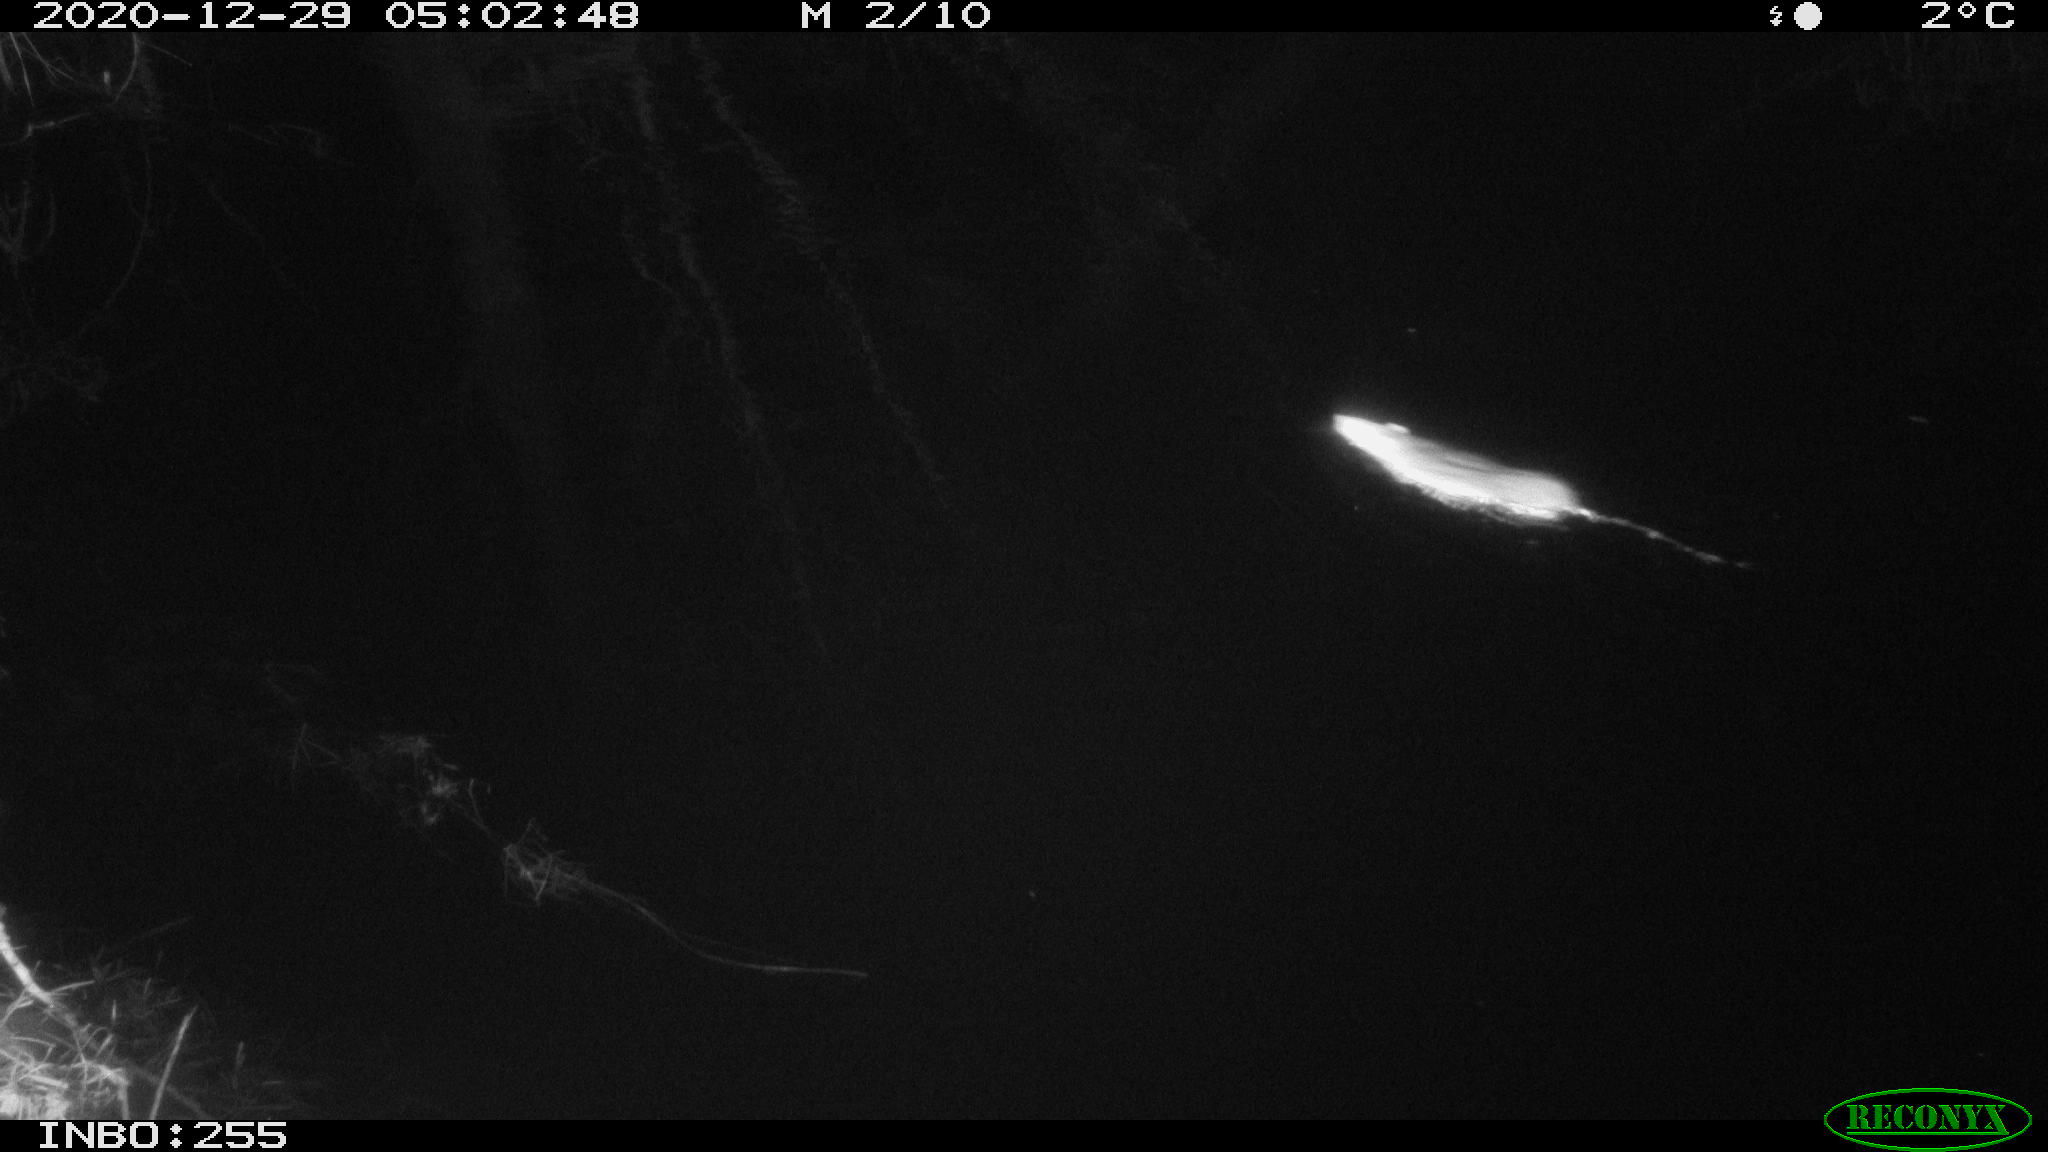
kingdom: Animalia
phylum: Chordata
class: Mammalia
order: Rodentia
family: Muridae
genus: Rattus
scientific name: Rattus norvegicus
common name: Brown rat
